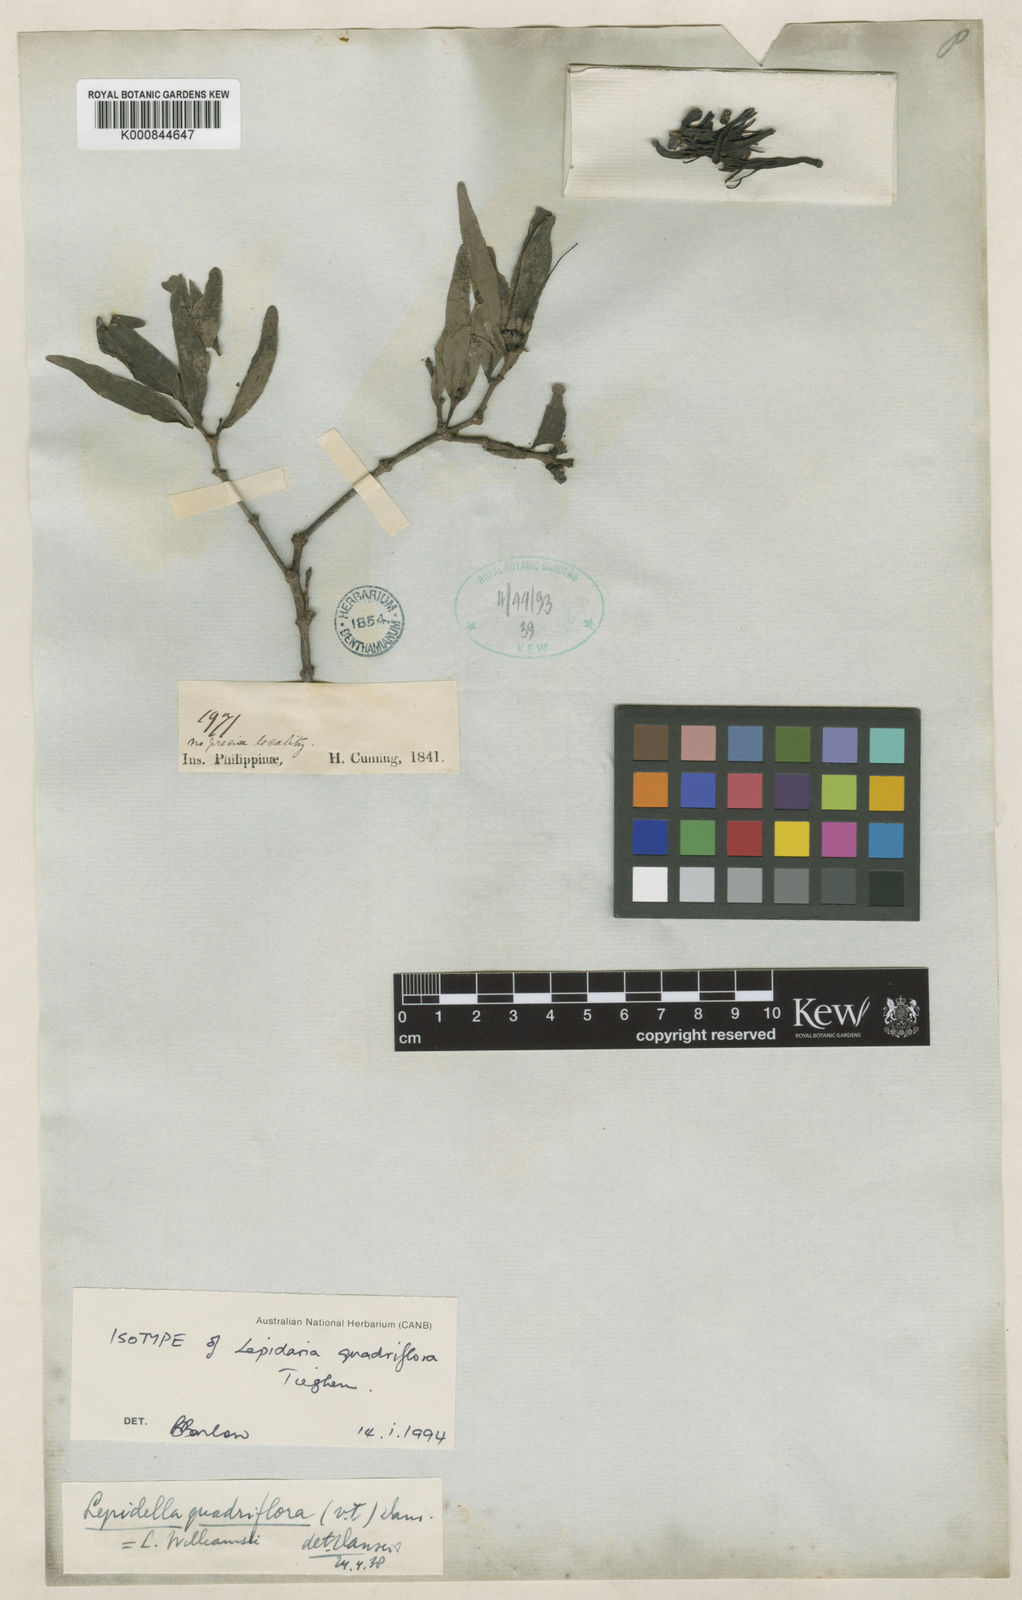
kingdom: Plantae
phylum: Tracheophyta
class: Magnoliopsida
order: Santalales
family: Loranthaceae
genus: Lepidaria
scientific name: Lepidaria quadriflora
